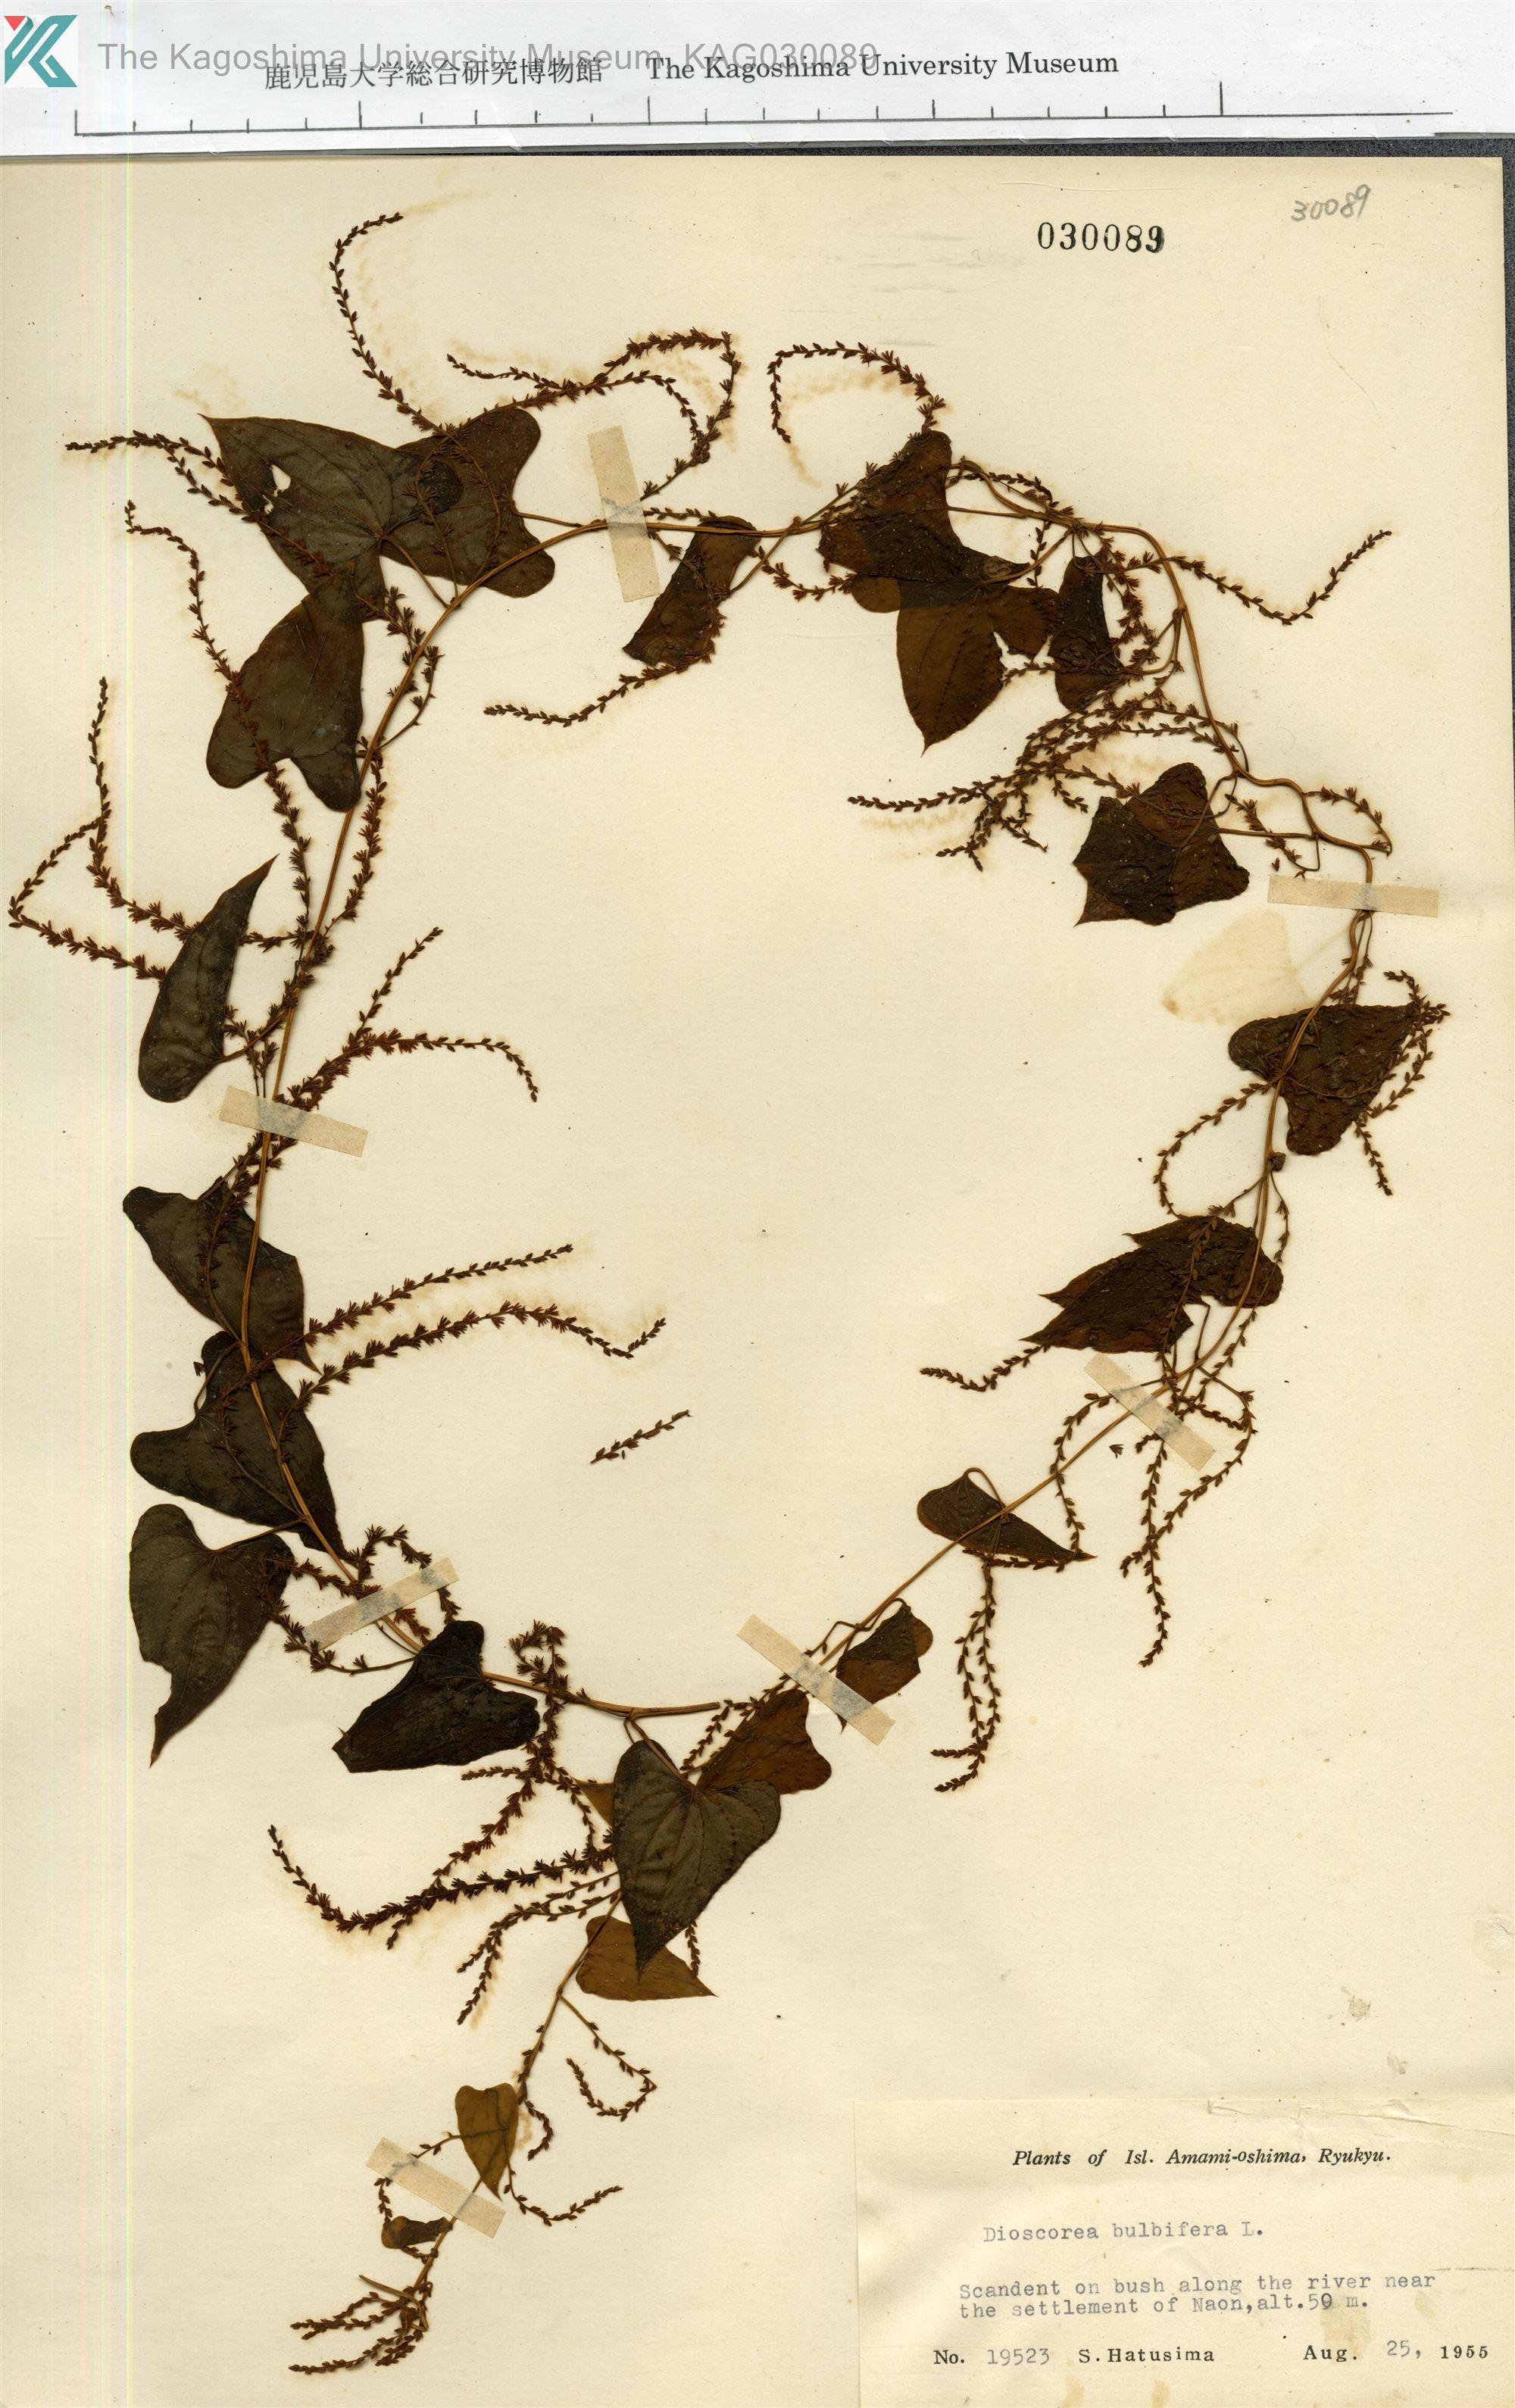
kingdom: Plantae
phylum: Tracheophyta
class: Liliopsida
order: Dioscoreales
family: Dioscoreaceae
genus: Dioscorea
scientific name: Dioscorea bulbifera
